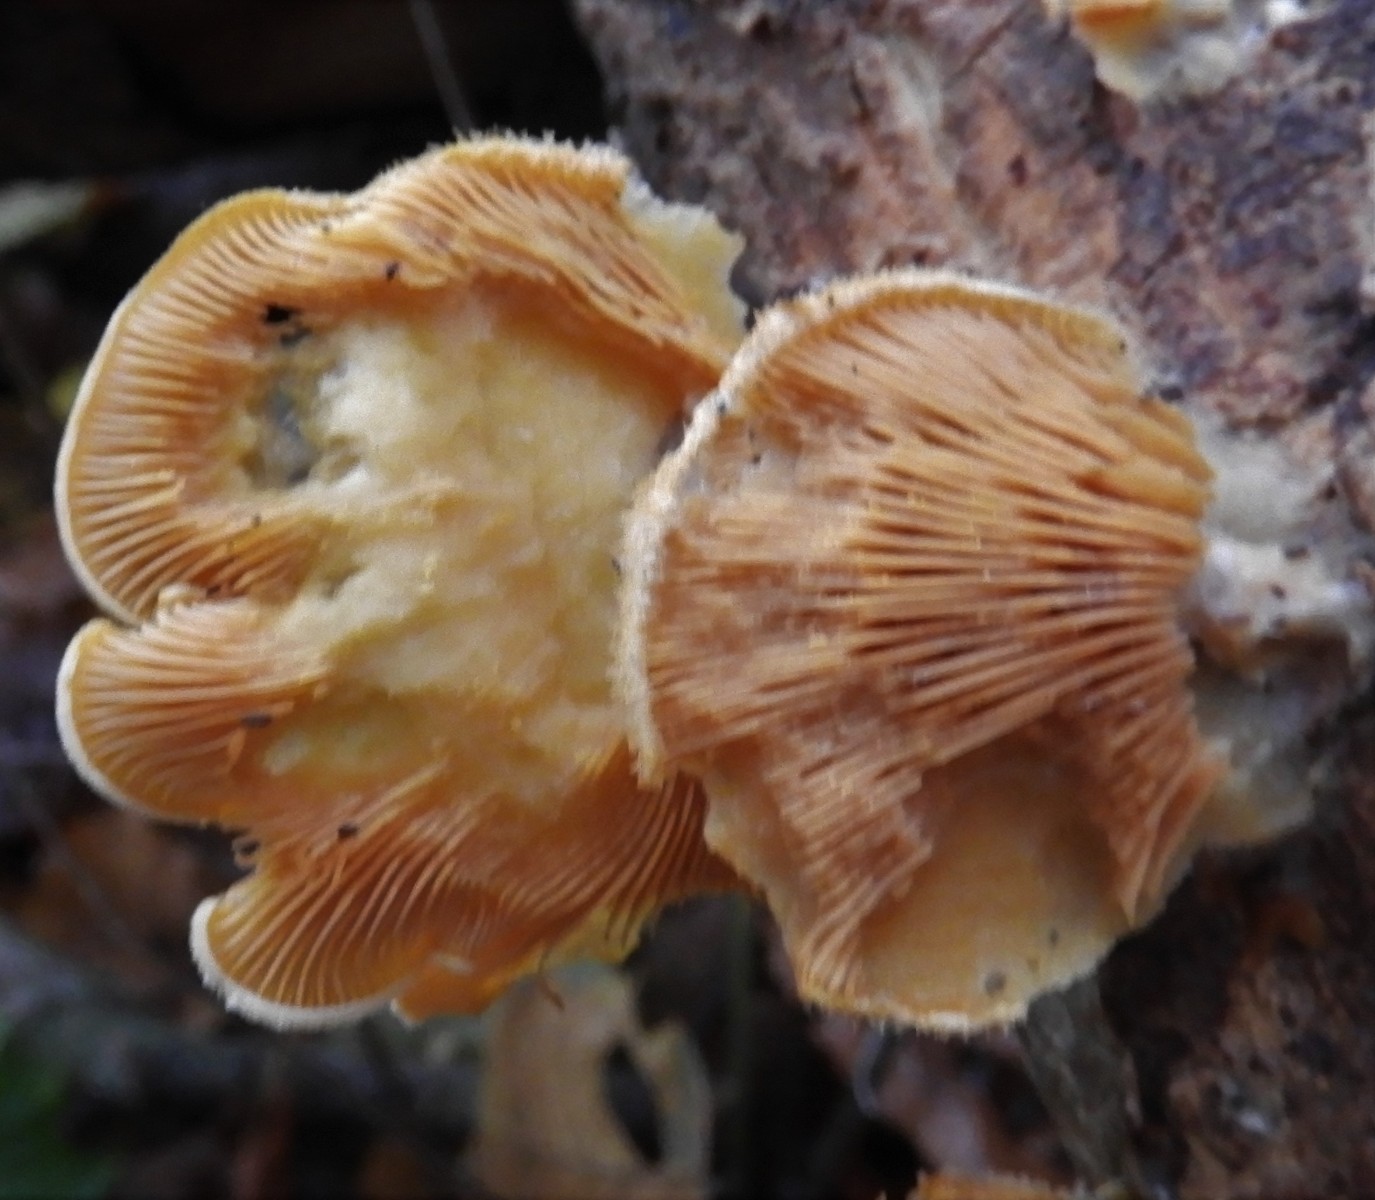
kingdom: Fungi
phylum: Basidiomycota
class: Agaricomycetes
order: Agaricales
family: Phyllotopsidaceae
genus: Phyllotopsis
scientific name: Phyllotopsis nidulans
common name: okkerblad
